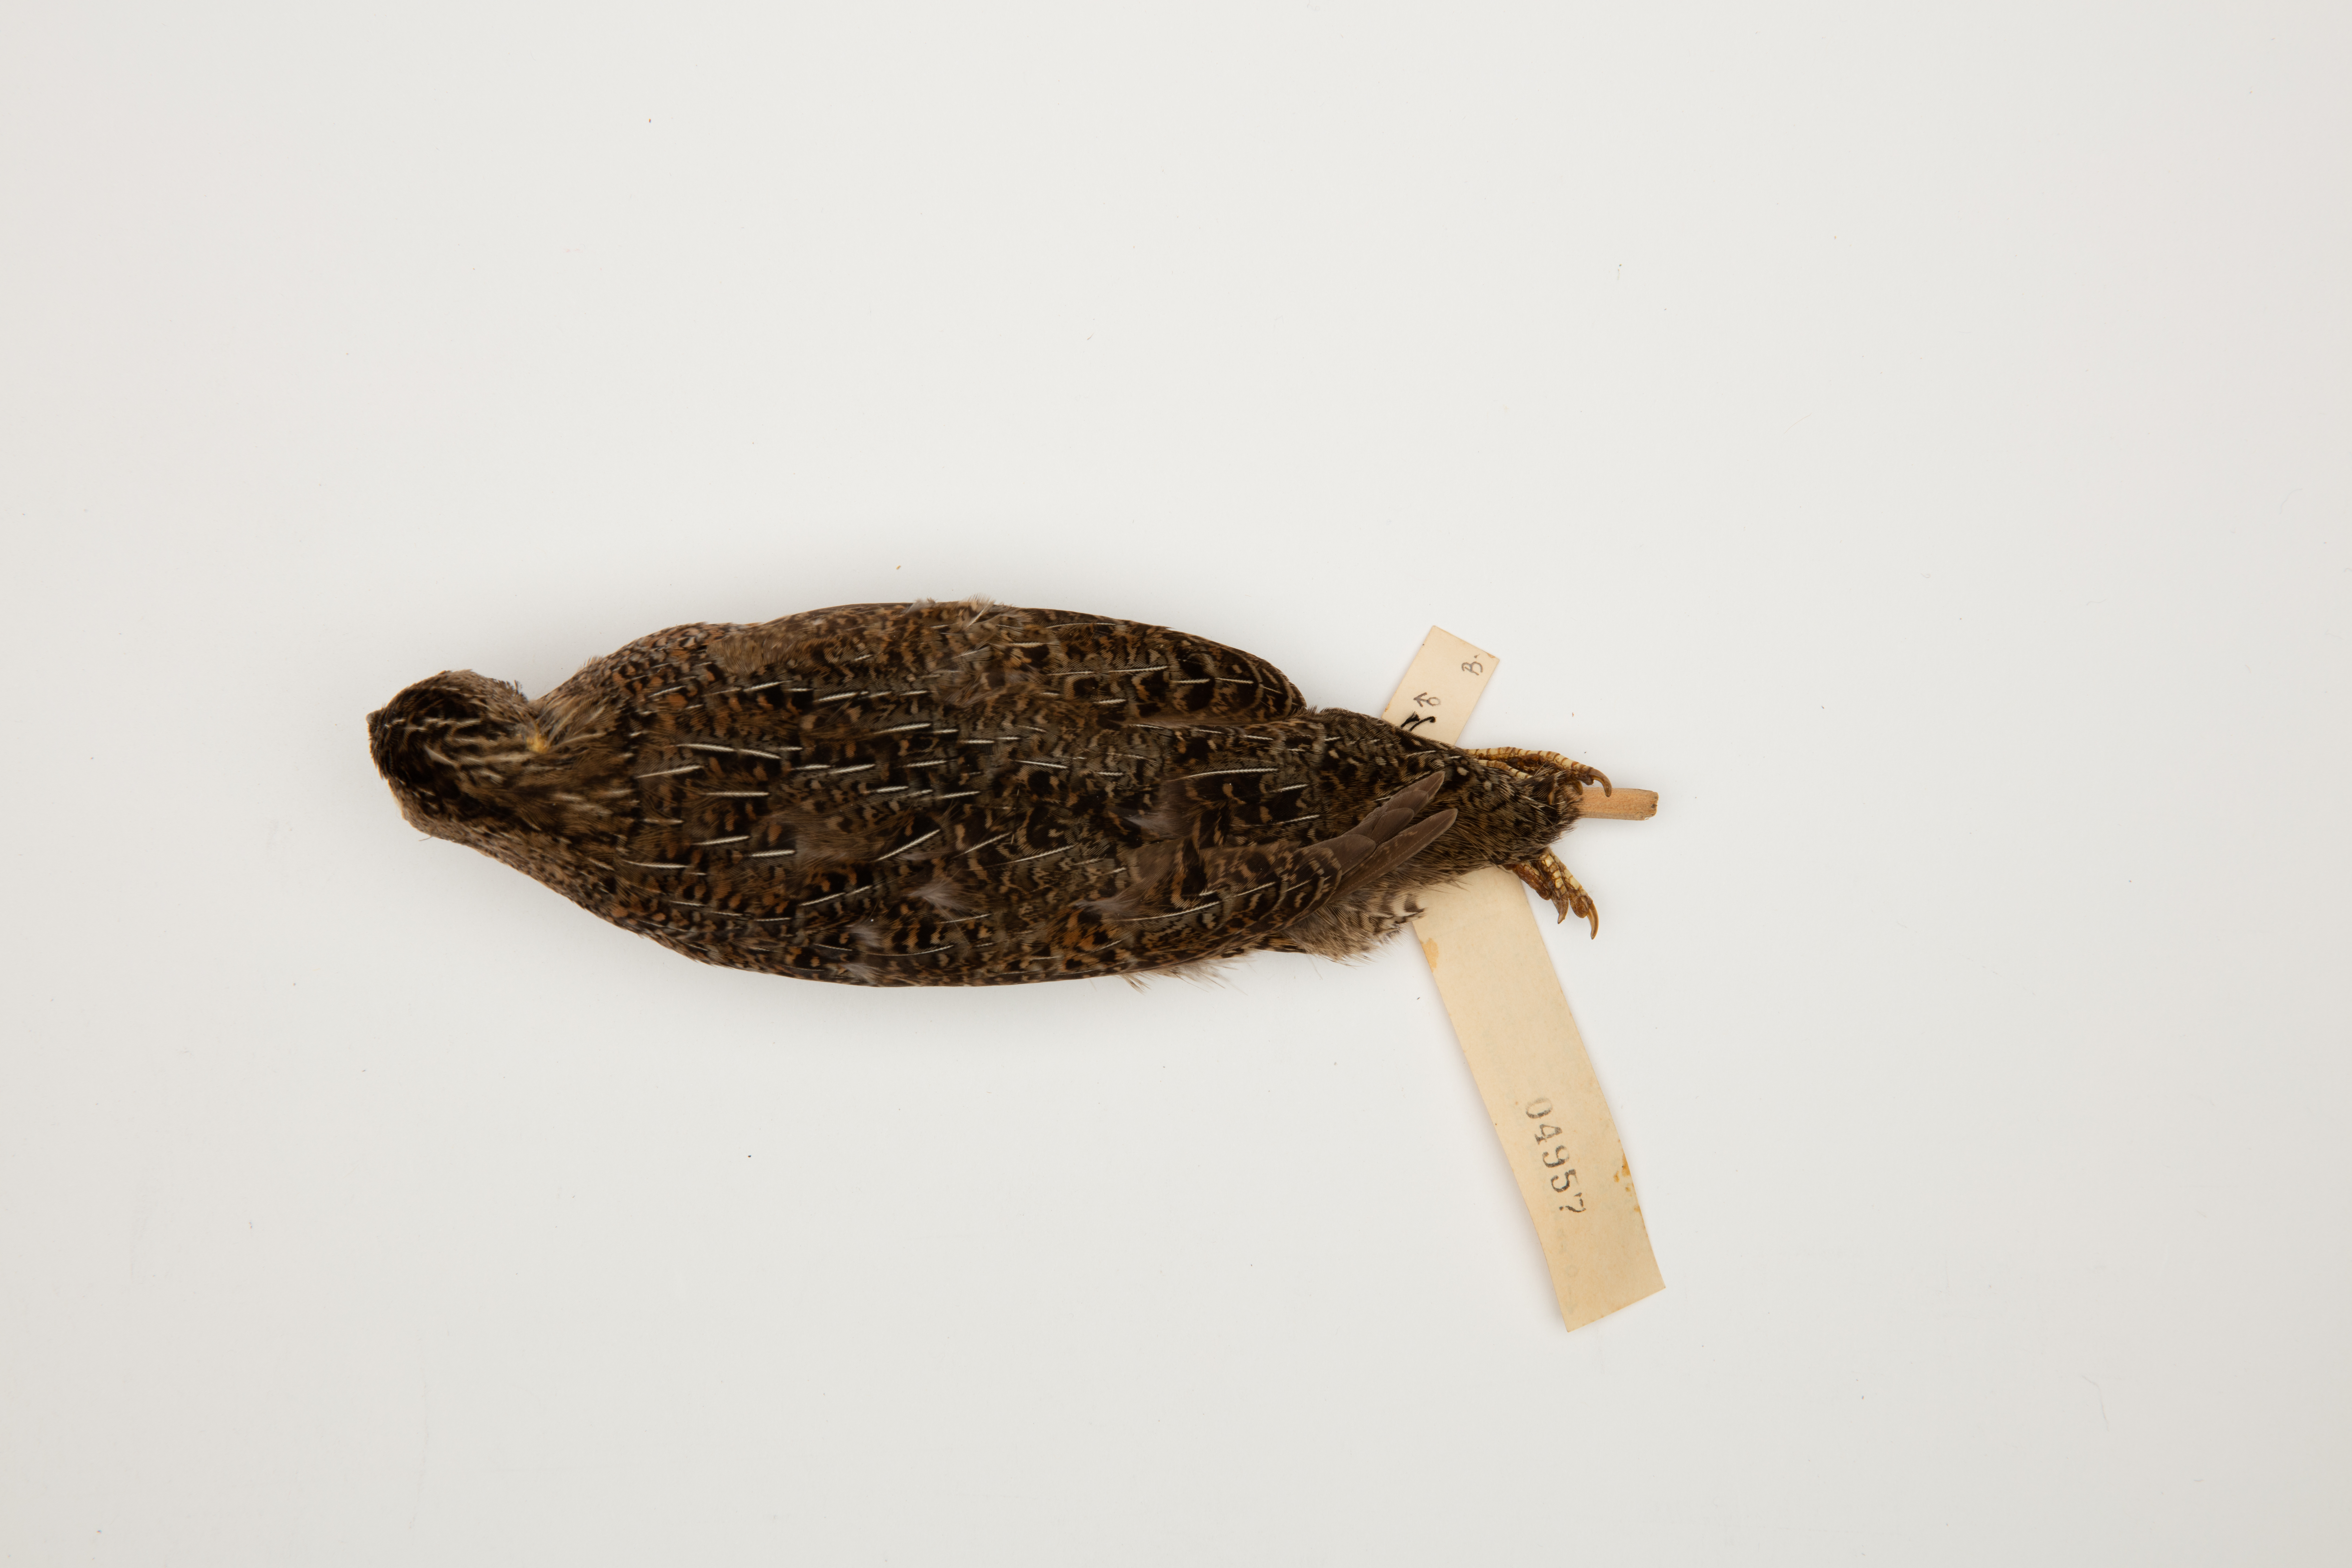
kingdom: Animalia
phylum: Chordata
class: Aves
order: Galliformes
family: Phasianidae
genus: Synoicus
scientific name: Synoicus ypsilophorus
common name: Brown quail
